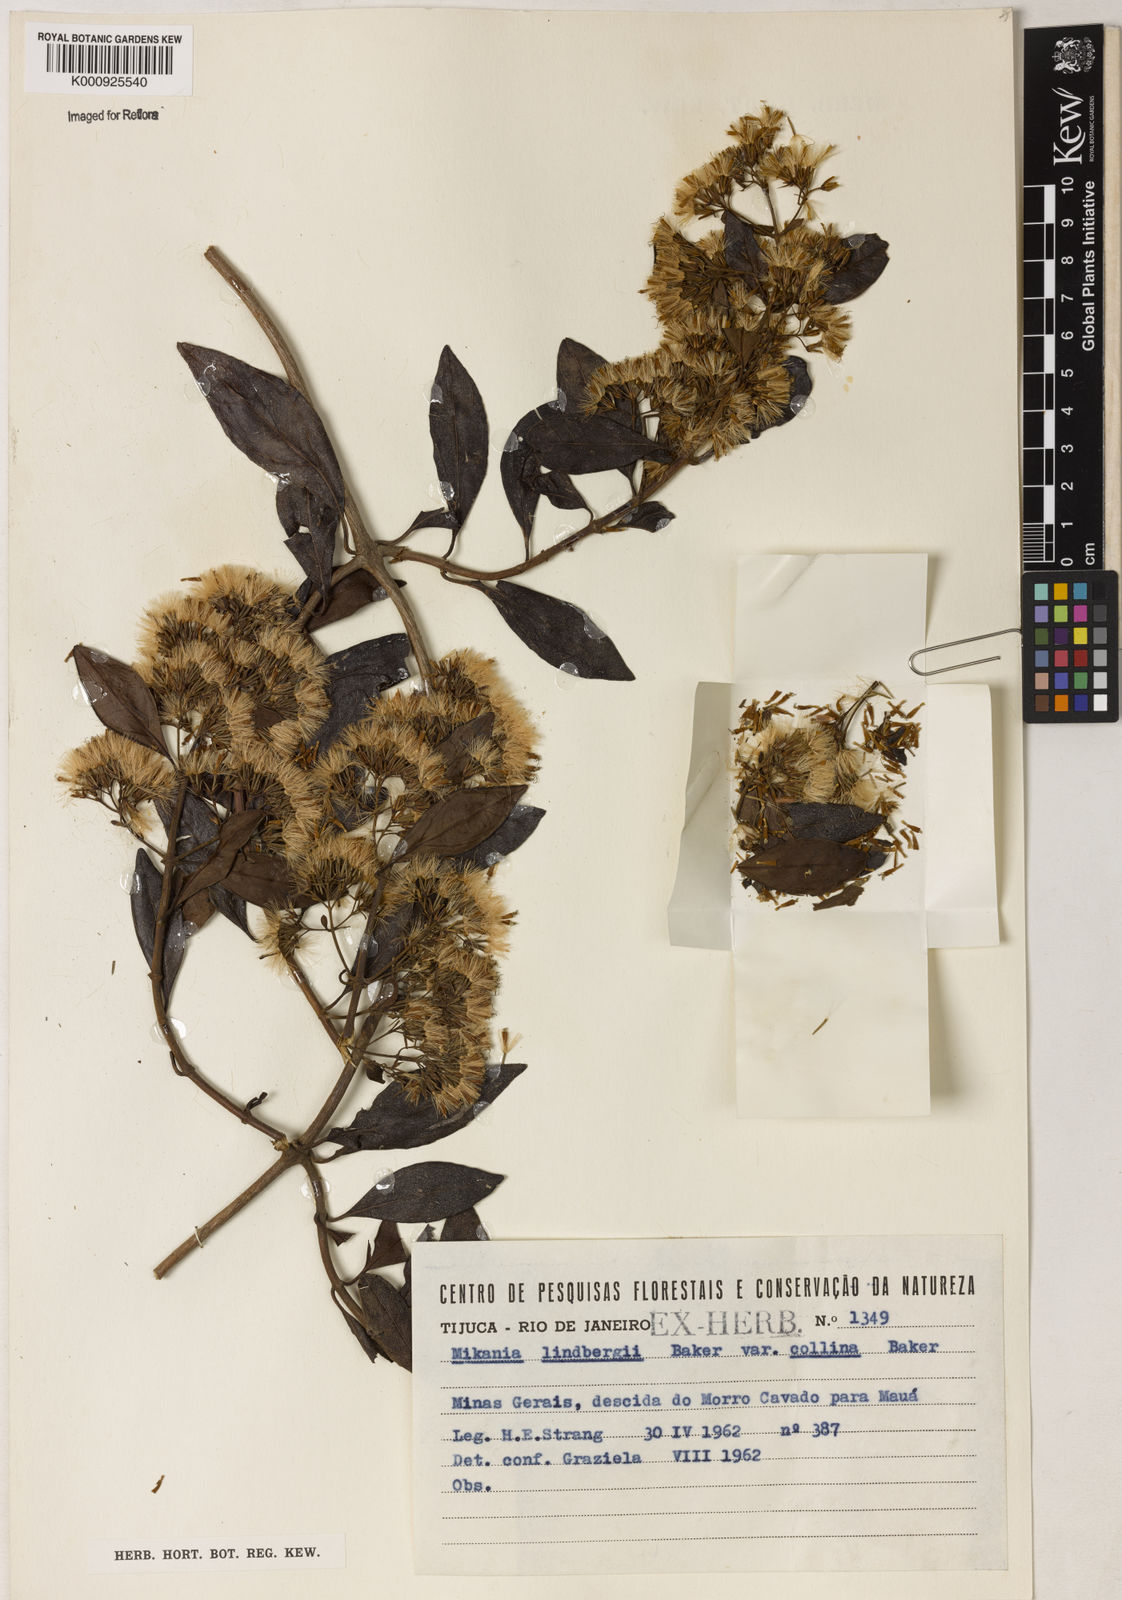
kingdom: Plantae
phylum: Tracheophyta
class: Magnoliopsida
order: Asterales
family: Asteraceae
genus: Mikania
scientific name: Mikania lindbergii
